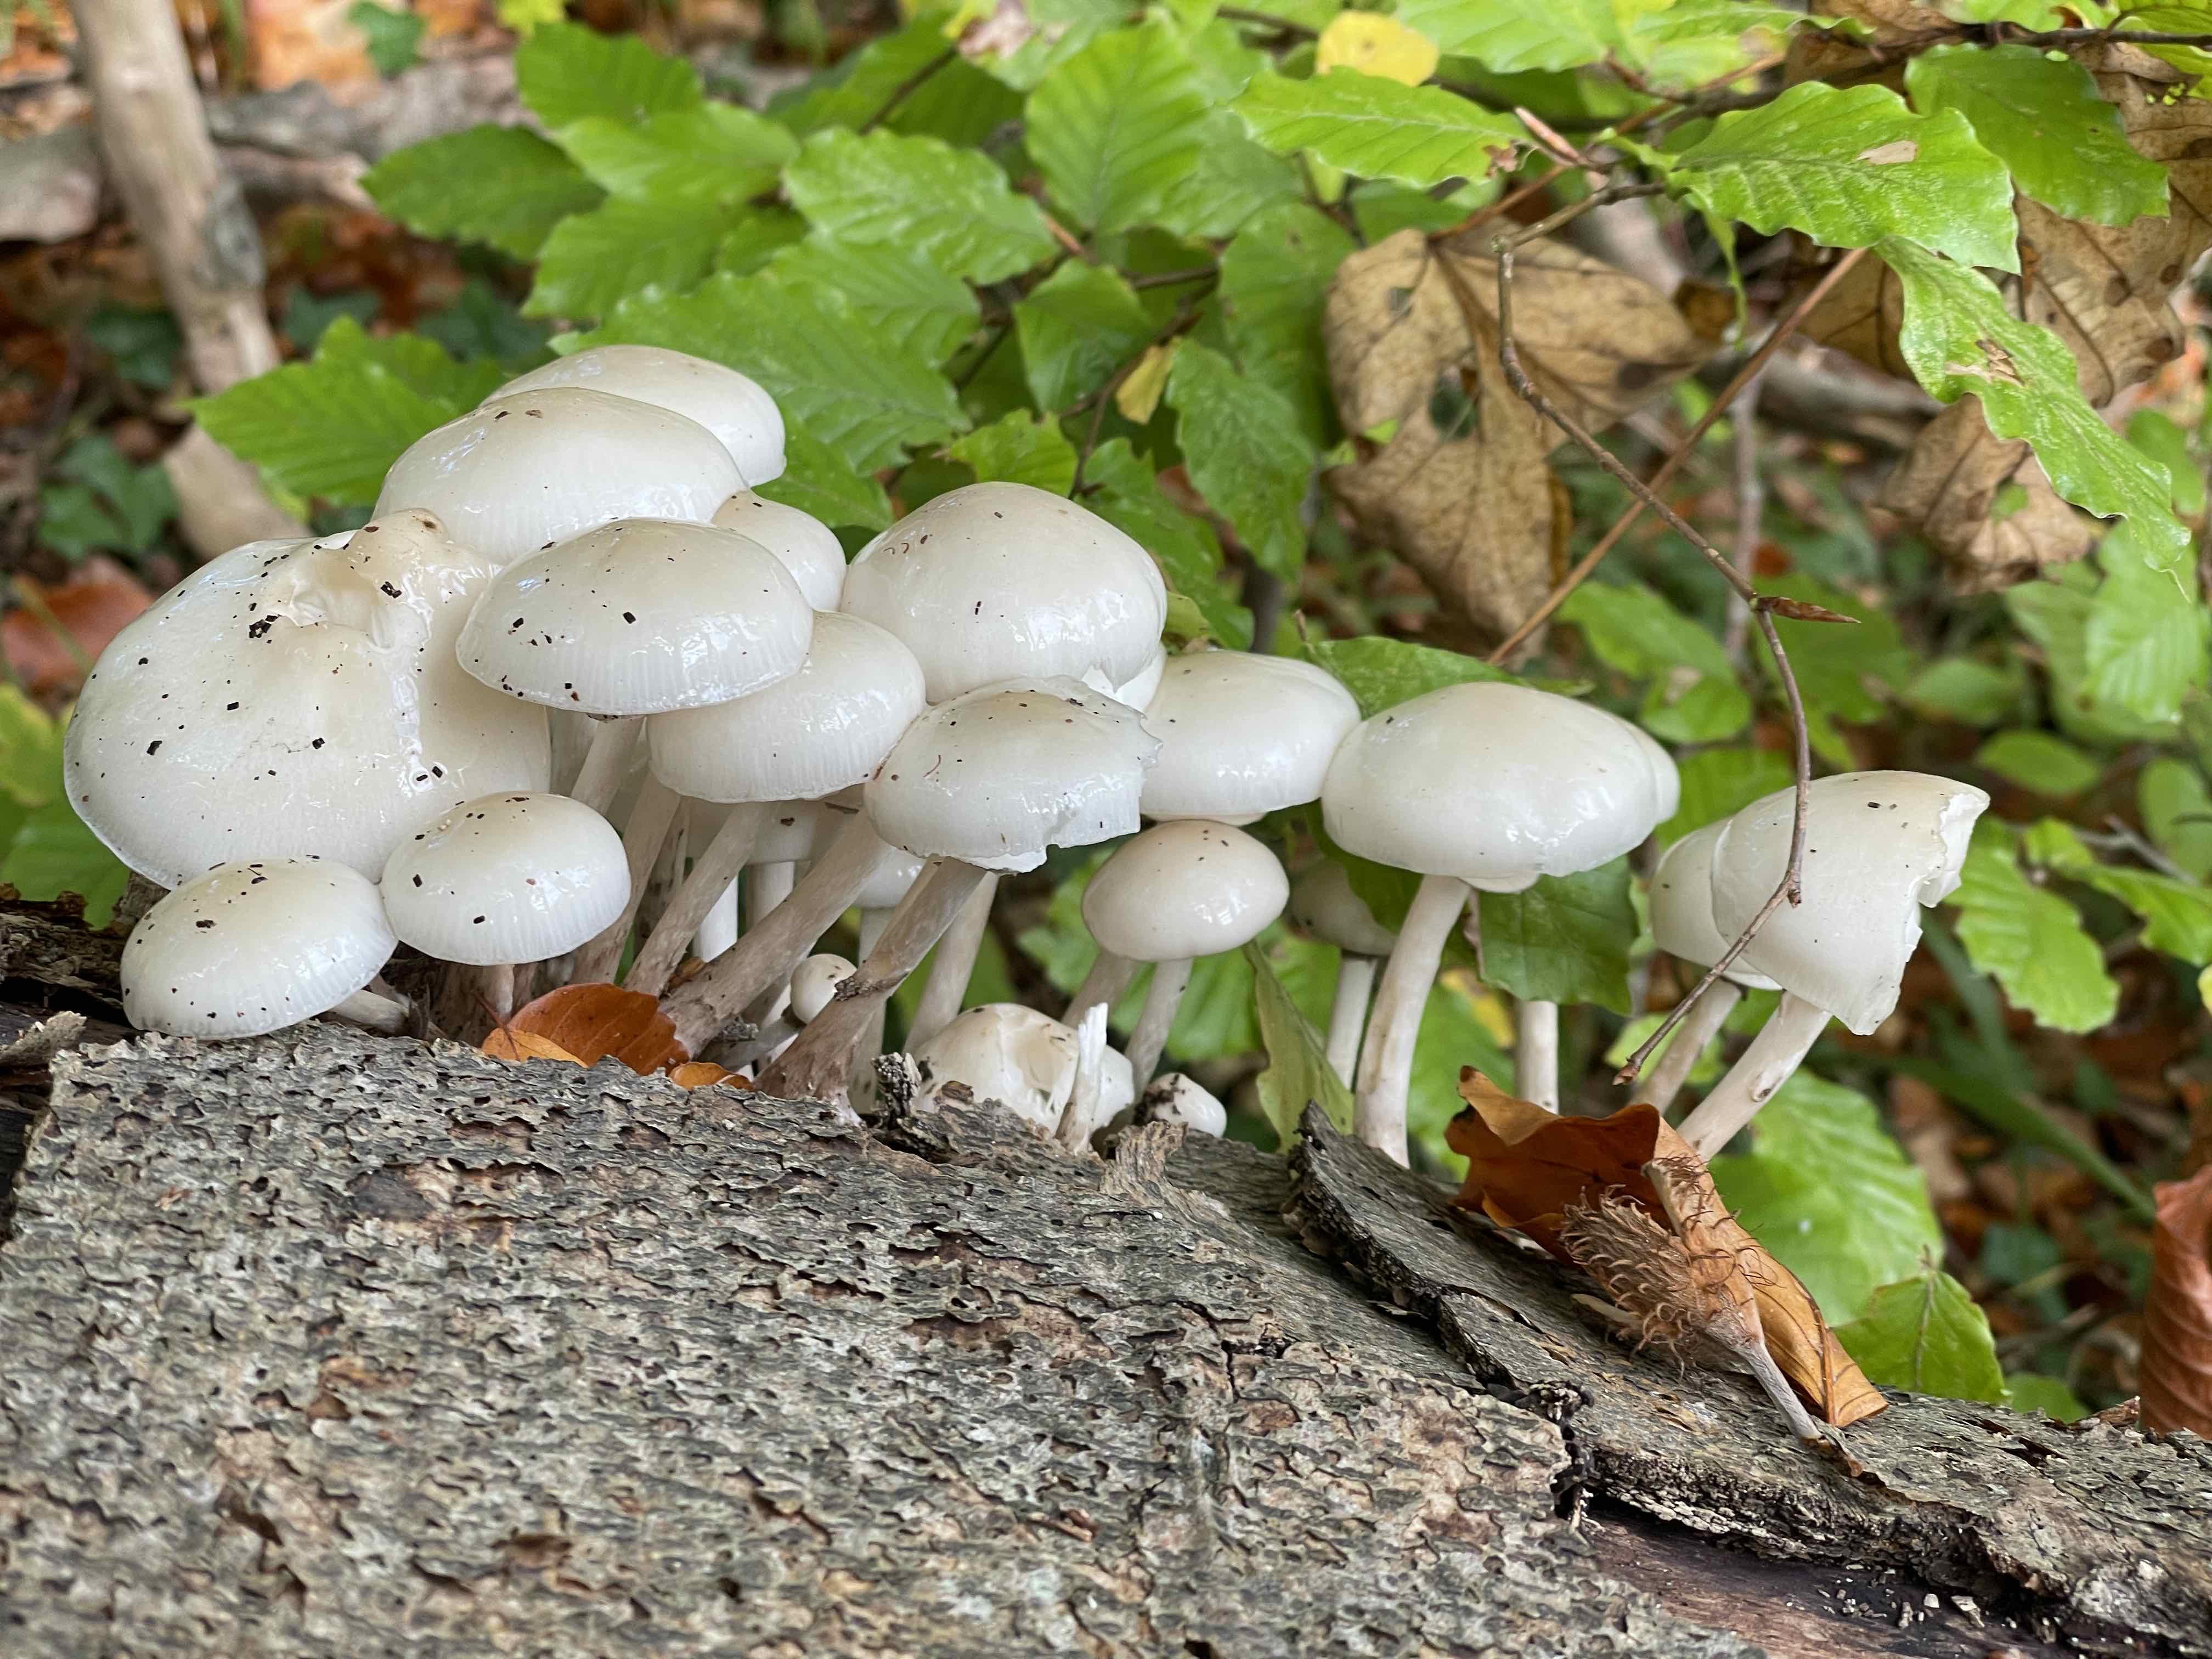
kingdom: Fungi
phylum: Basidiomycota
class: Agaricomycetes
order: Agaricales
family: Physalacriaceae
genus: Mucidula
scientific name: Mucidula mucida
